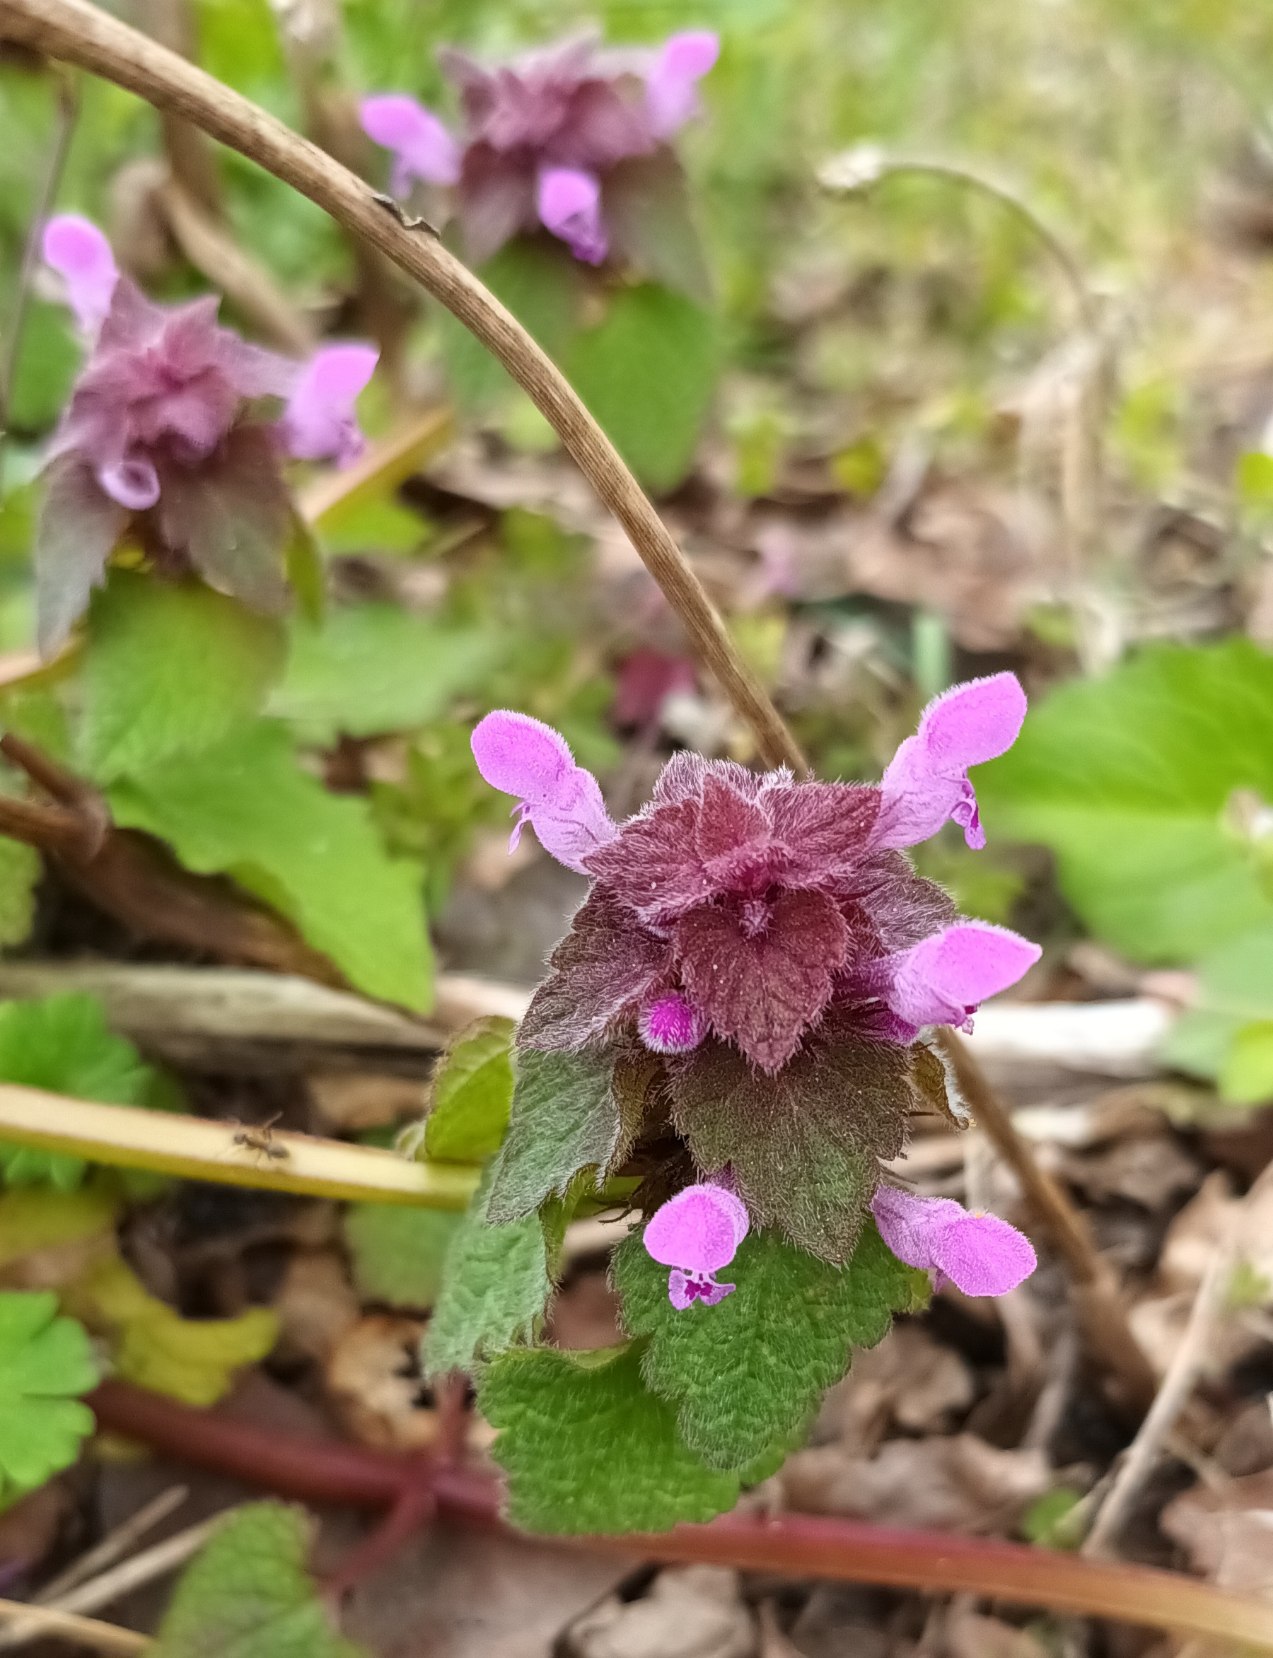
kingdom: Plantae
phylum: Tracheophyta
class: Magnoliopsida
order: Lamiales
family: Lamiaceae
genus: Lamium
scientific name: Lamium purpureum
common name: Rød tvetand
